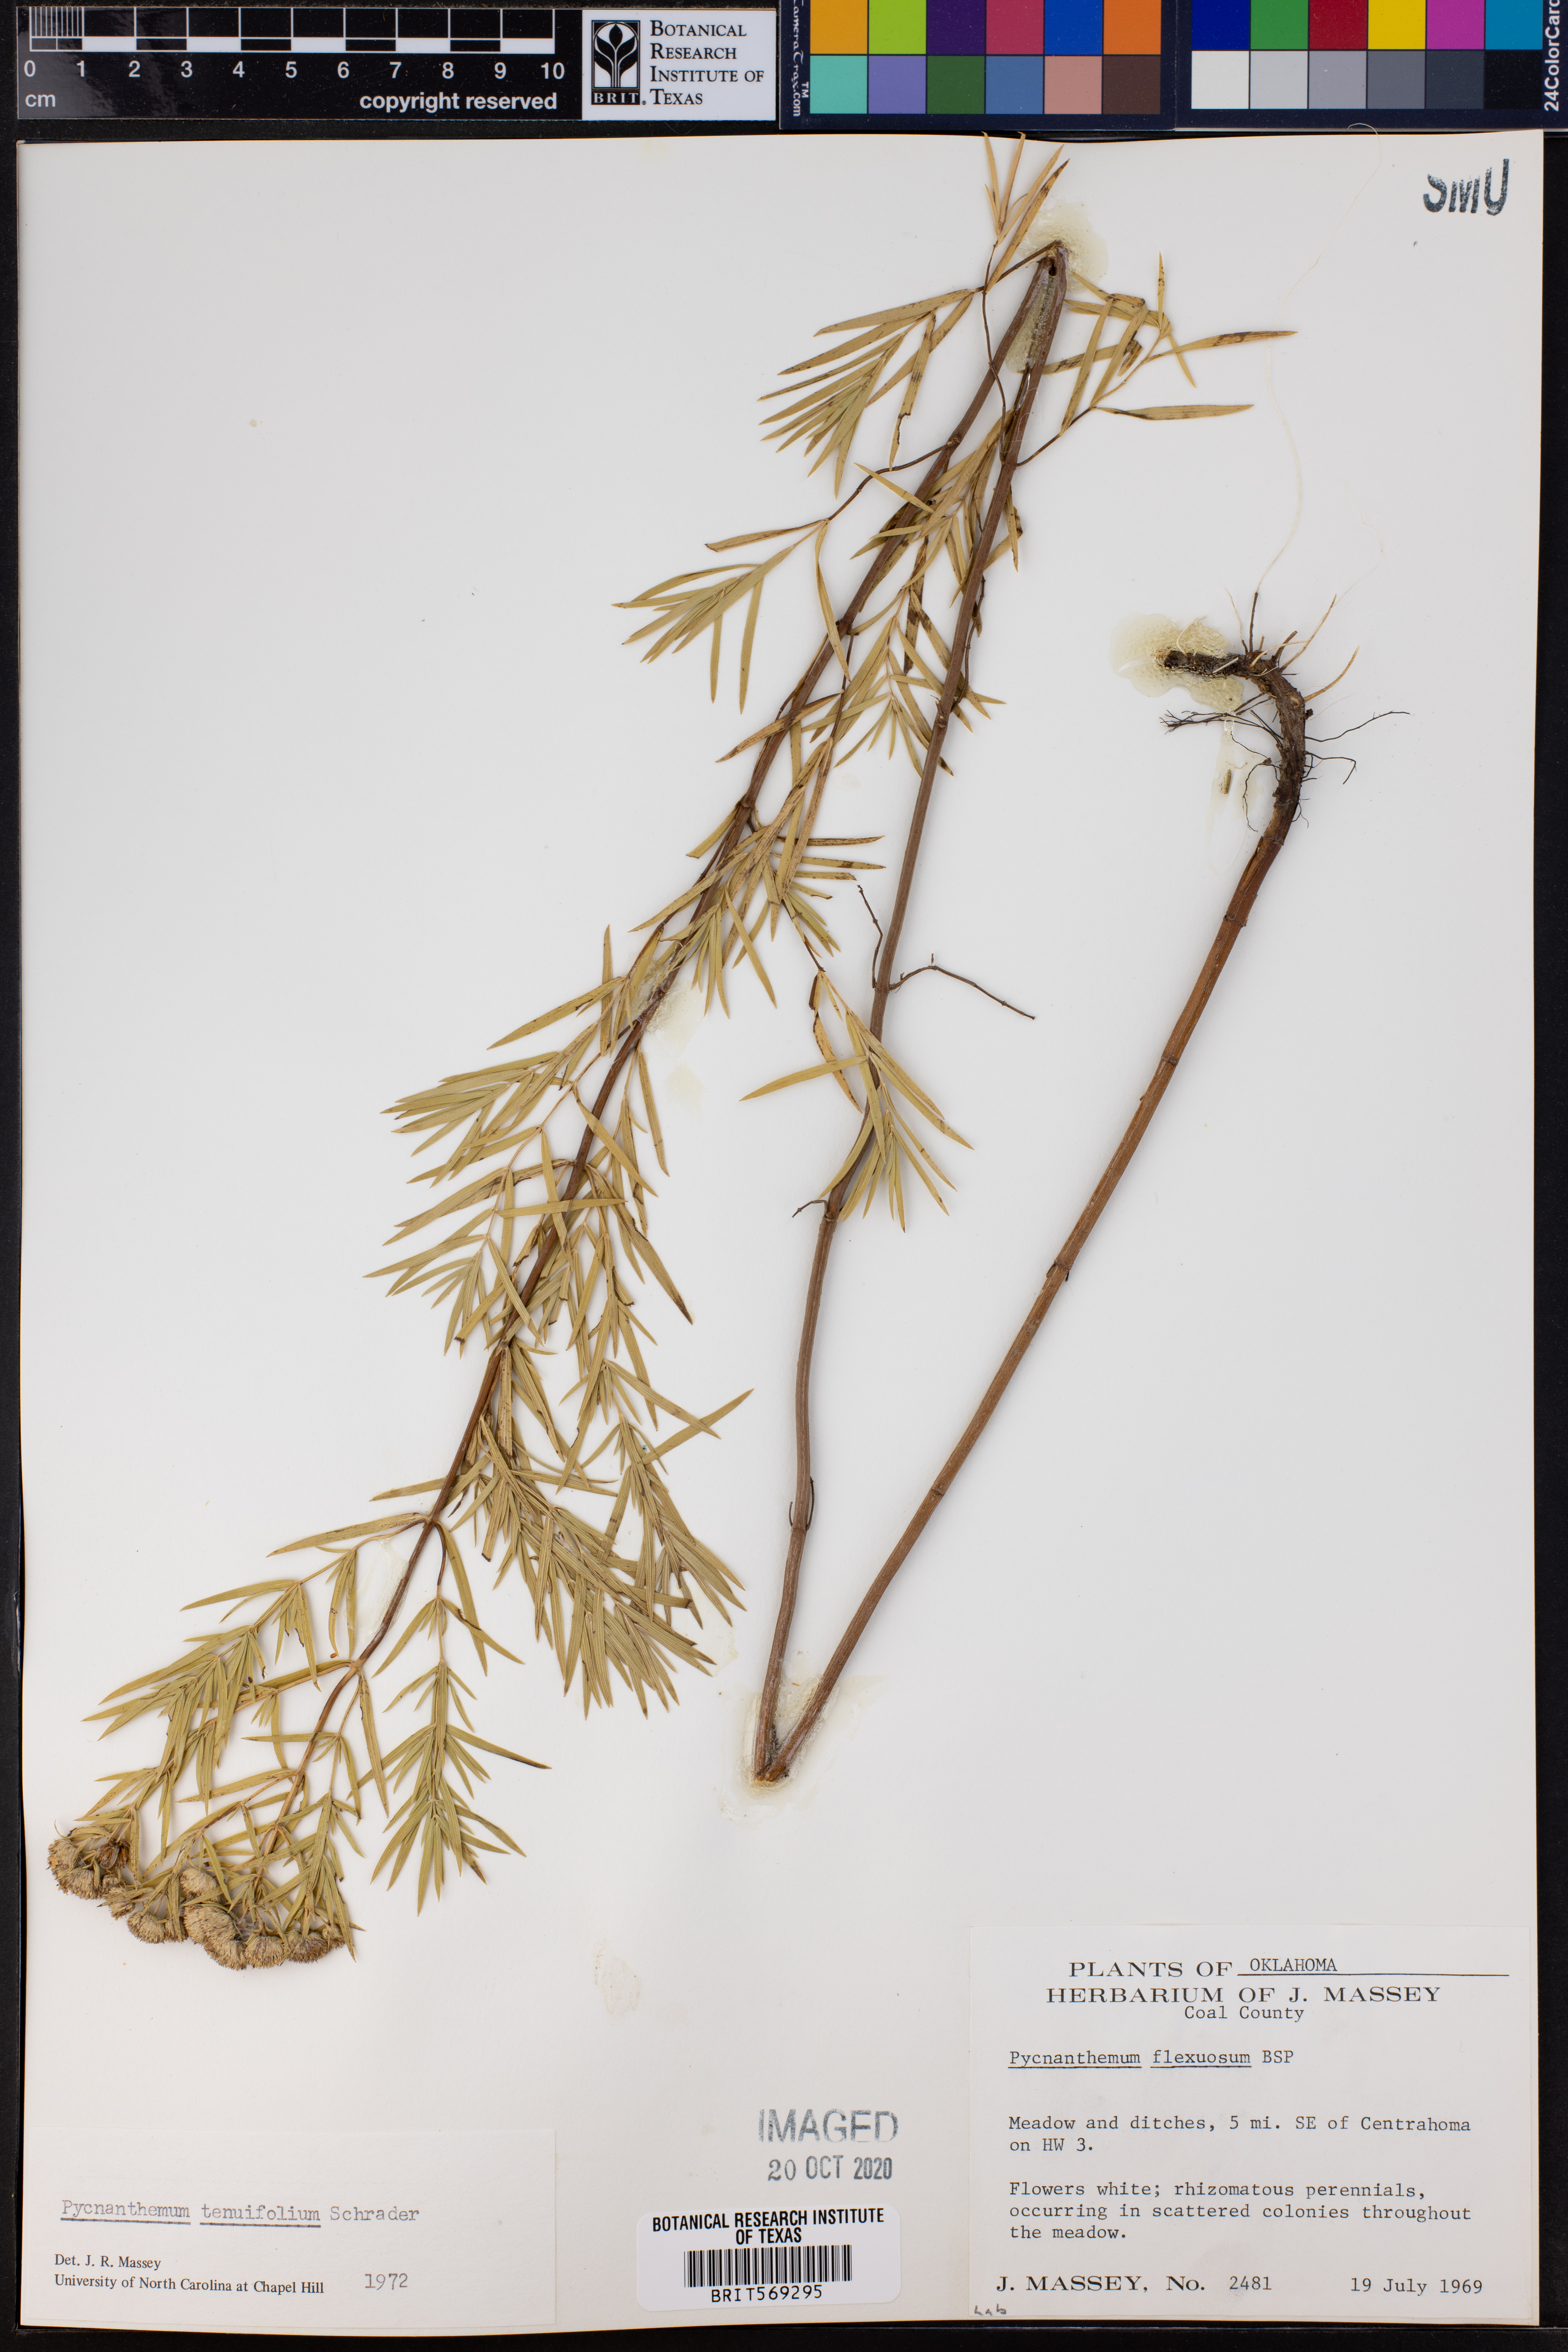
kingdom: Plantae
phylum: Tracheophyta
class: Magnoliopsida
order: Lamiales
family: Lamiaceae
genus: Pycnanthemum
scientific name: Pycnanthemum tenuifolium
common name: Narrow-leaf mountain-mint
